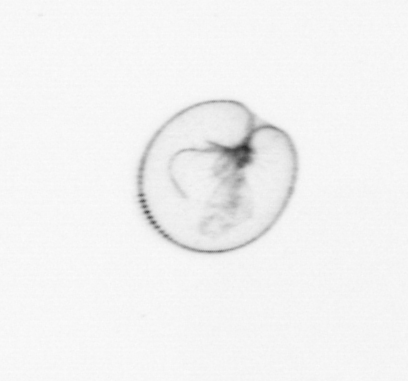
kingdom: Chromista
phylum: Myzozoa
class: Dinophyceae
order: Noctilucales
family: Noctilucaceae
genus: Noctiluca
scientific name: Noctiluca scintillans
